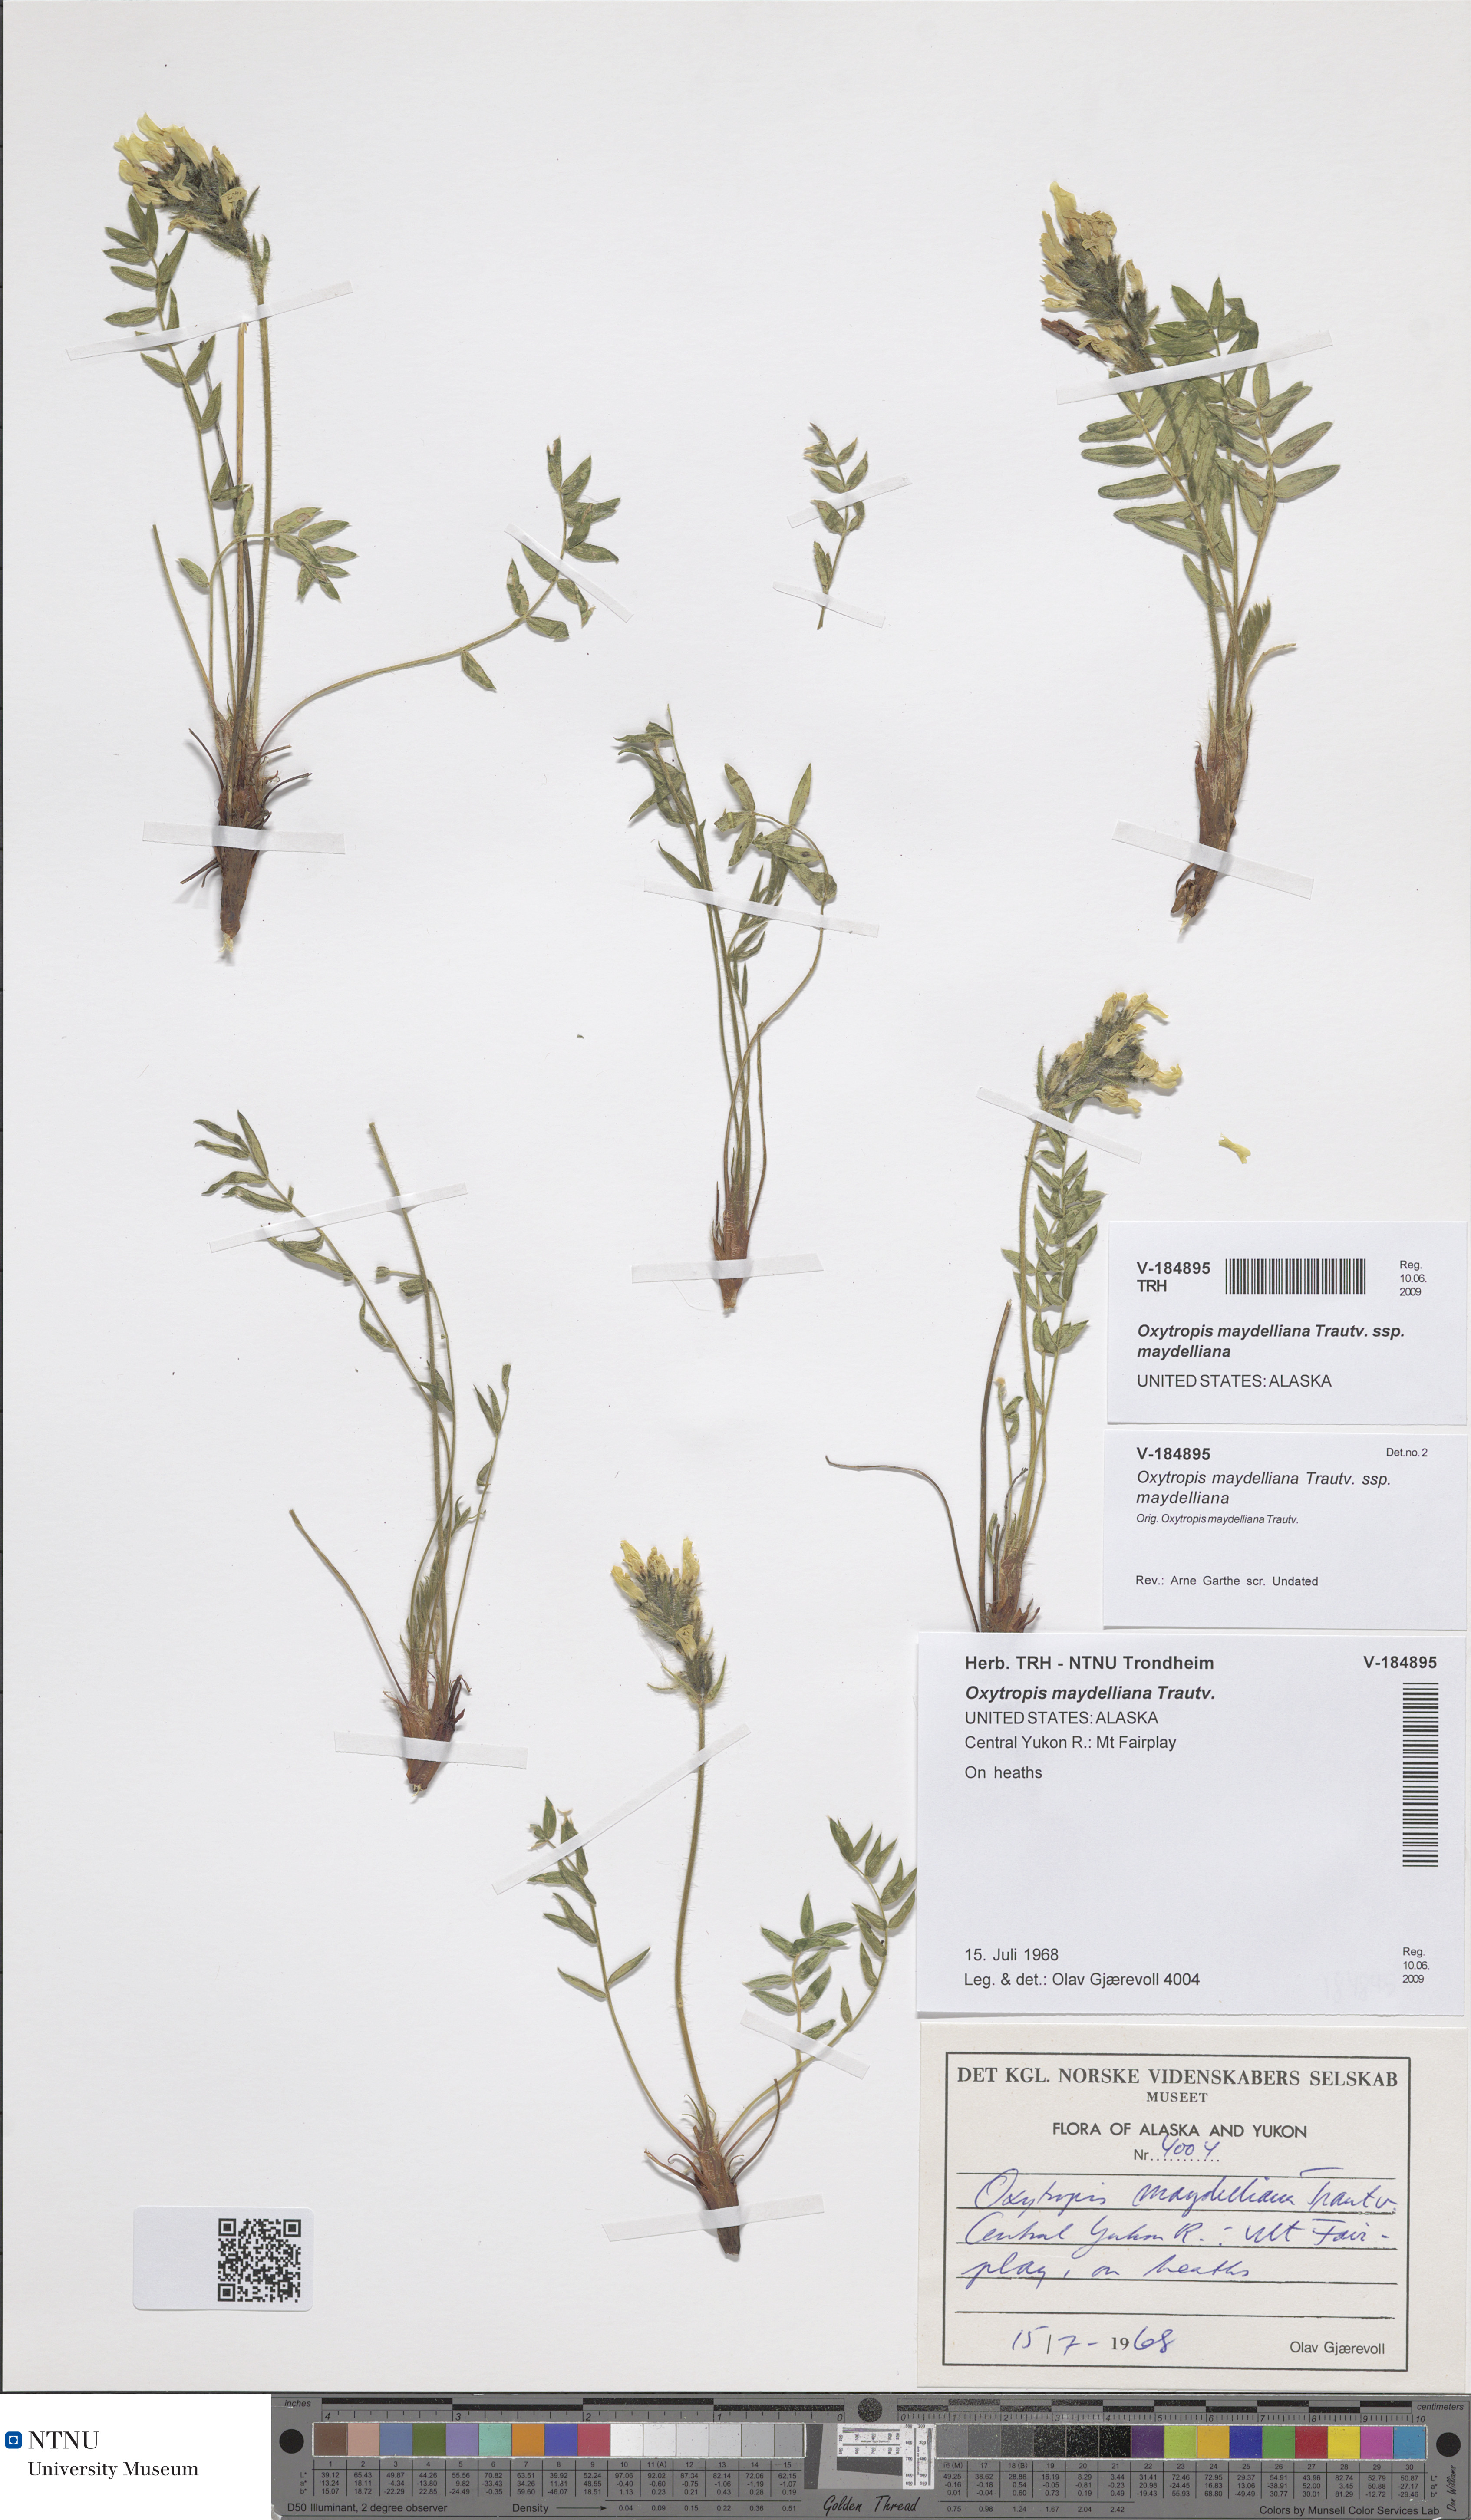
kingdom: Plantae
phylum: Tracheophyta
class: Magnoliopsida
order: Fabales
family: Fabaceae
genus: Oxytropis
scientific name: Oxytropis maydelliana
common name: Maydell's locoweed
